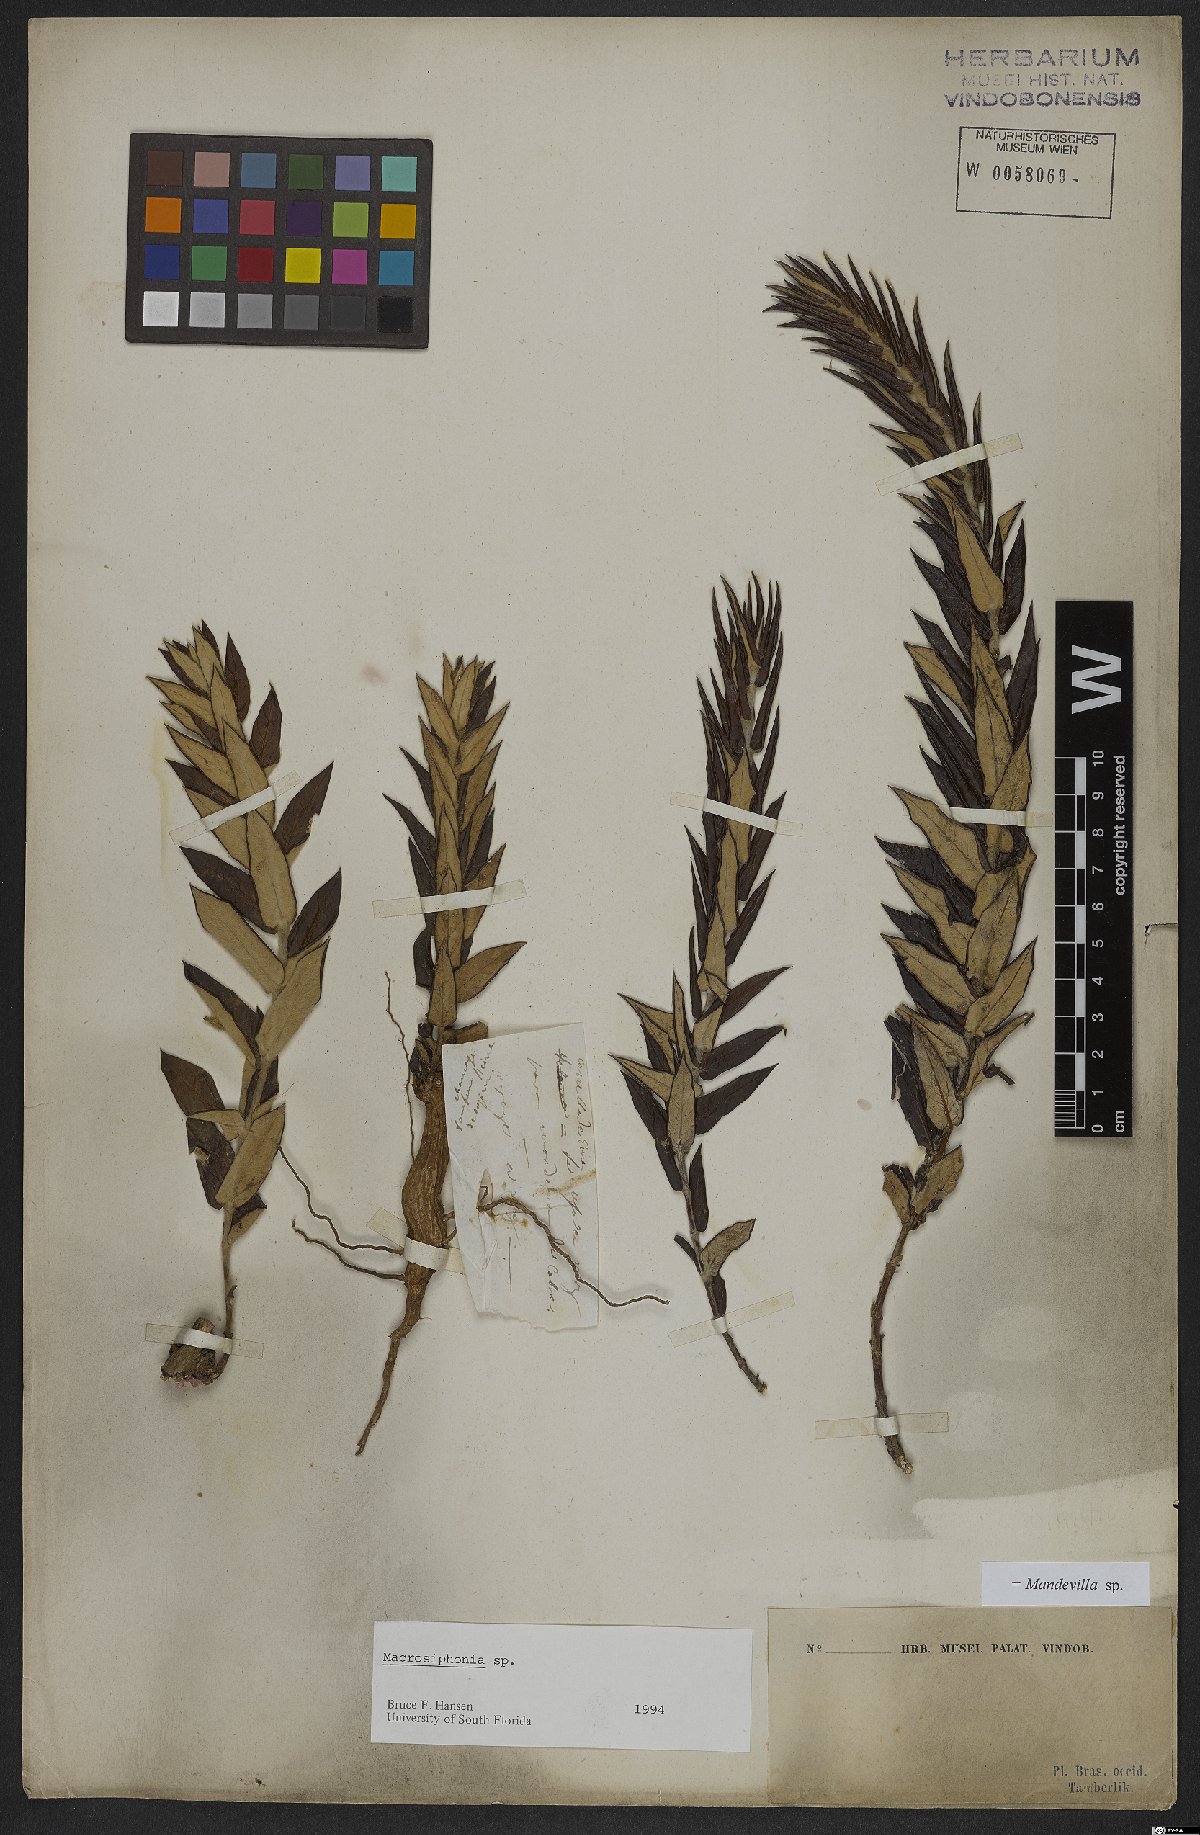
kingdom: Plantae
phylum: Tracheophyta
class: Magnoliopsida
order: Gentianales
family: Apocynaceae
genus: Mandevilla
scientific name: Mandevilla
